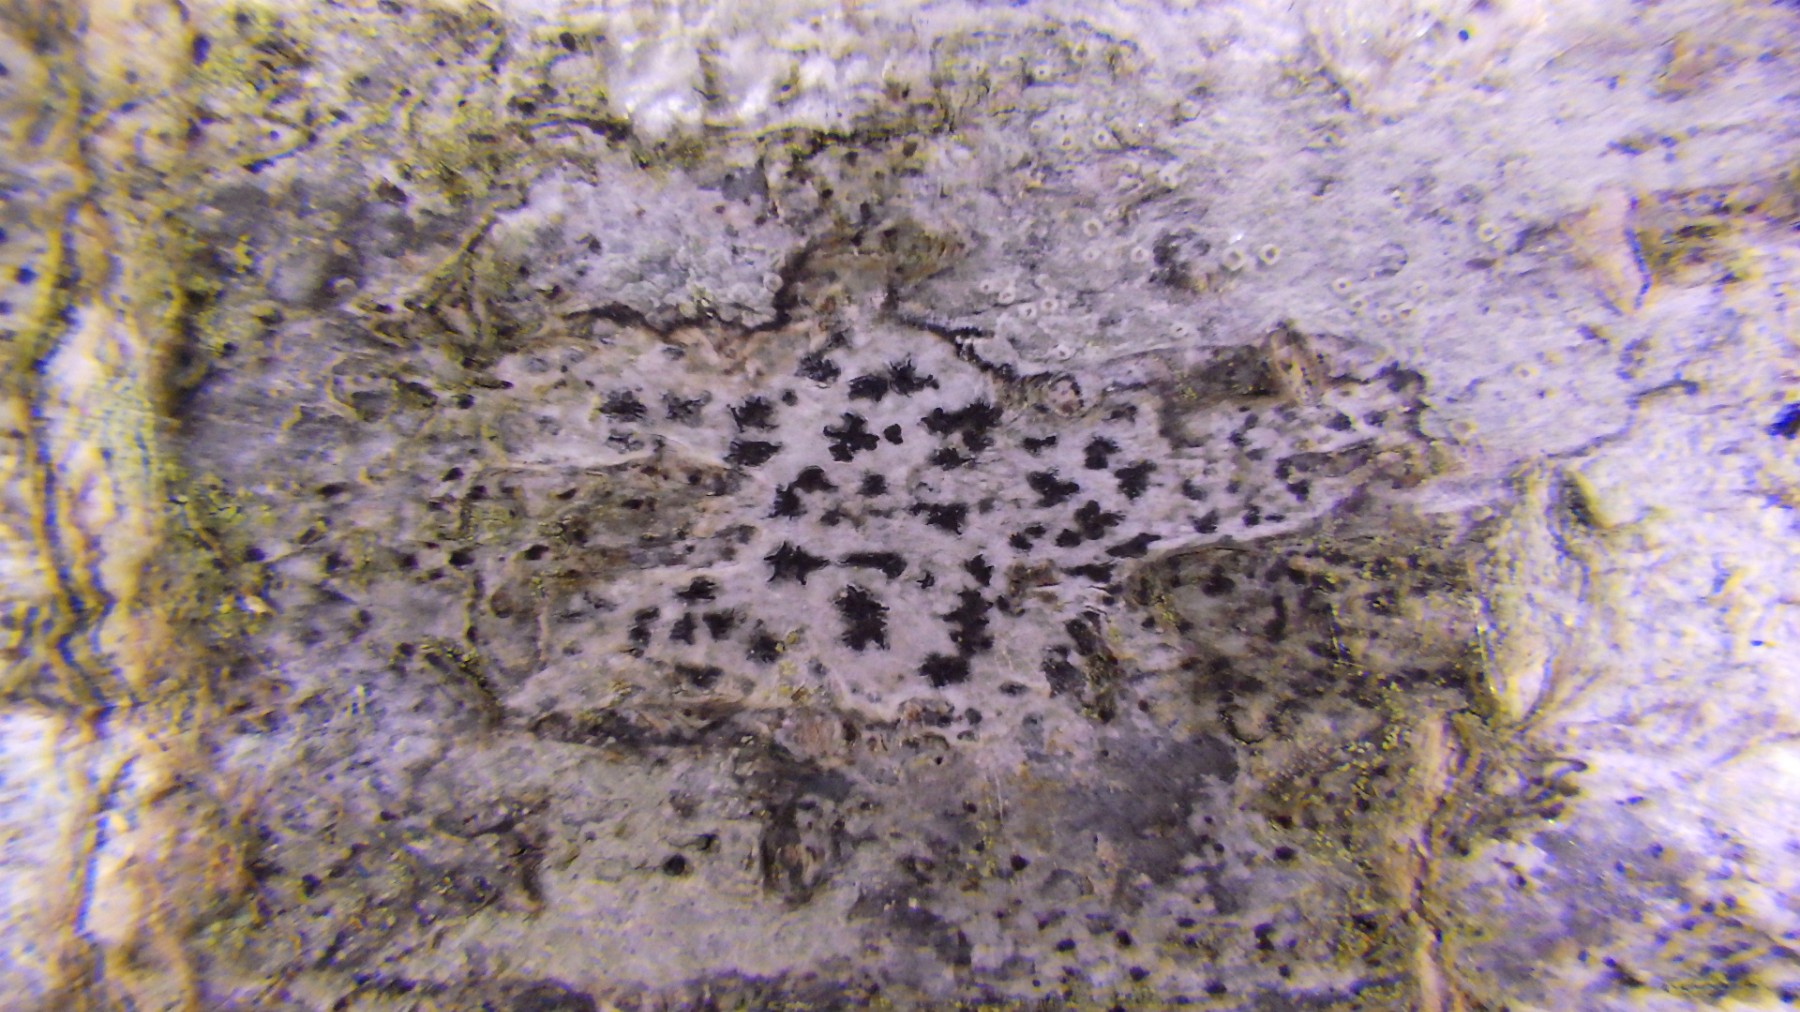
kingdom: Fungi
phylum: Ascomycota
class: Arthoniomycetes
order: Arthoniales
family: Arthoniaceae
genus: Arthonia
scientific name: Arthonia radiata
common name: stjerne-pletlav
